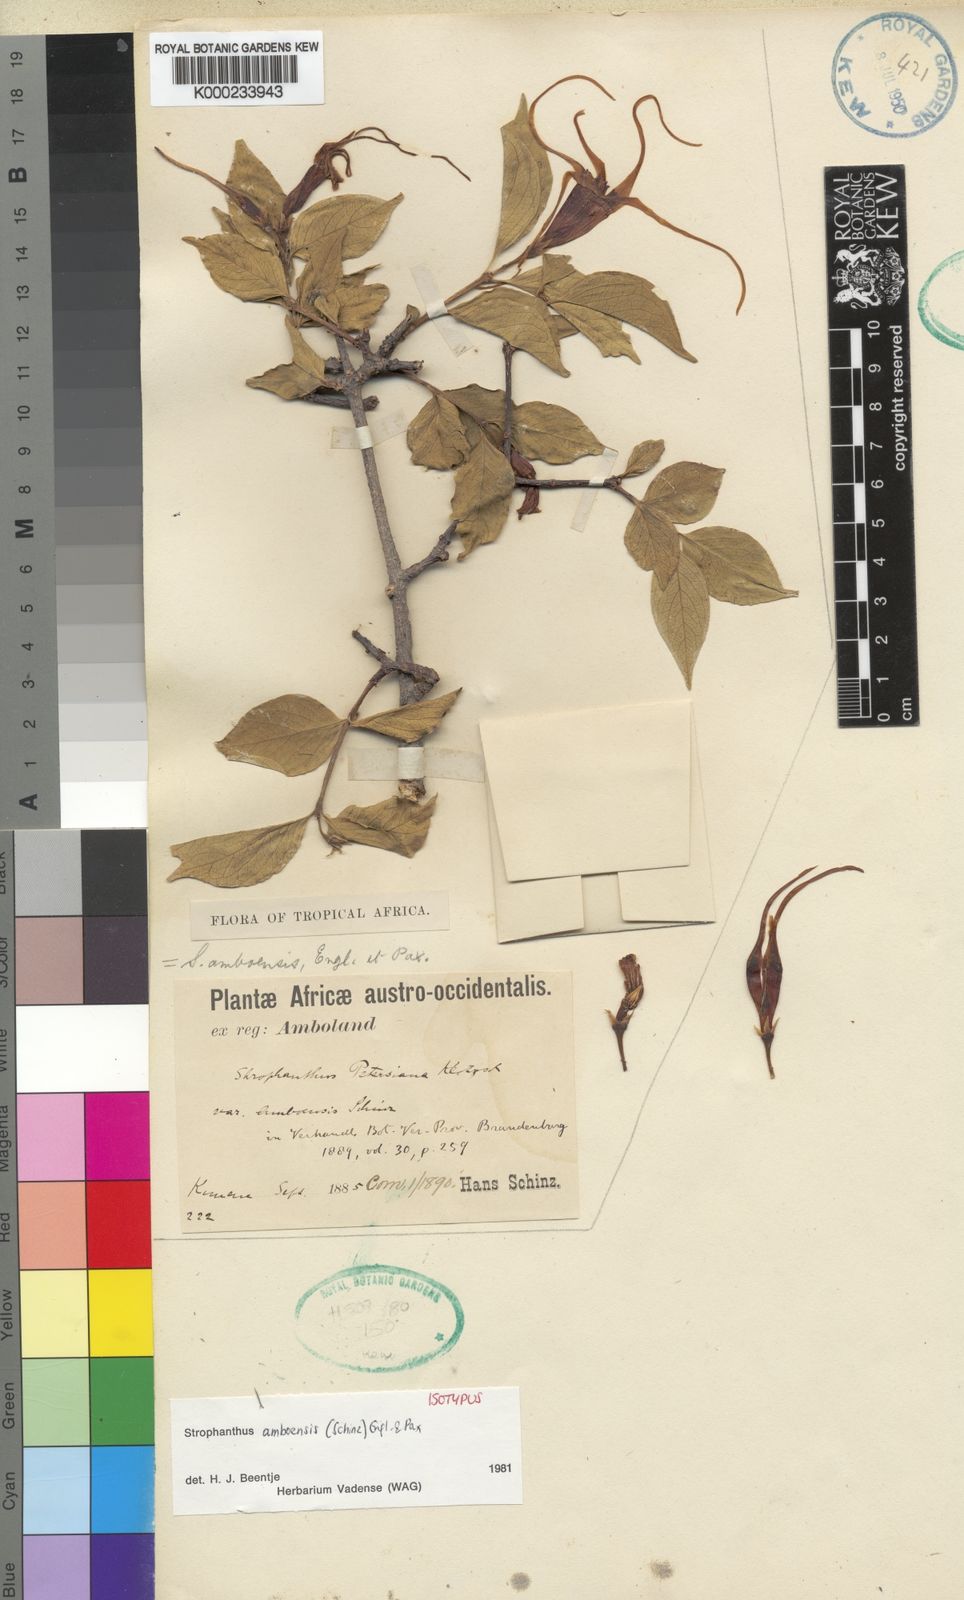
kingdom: Plantae
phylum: Tracheophyta
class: Magnoliopsida
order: Gentianales
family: Apocynaceae
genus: Strophanthus
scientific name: Strophanthus amboensis
